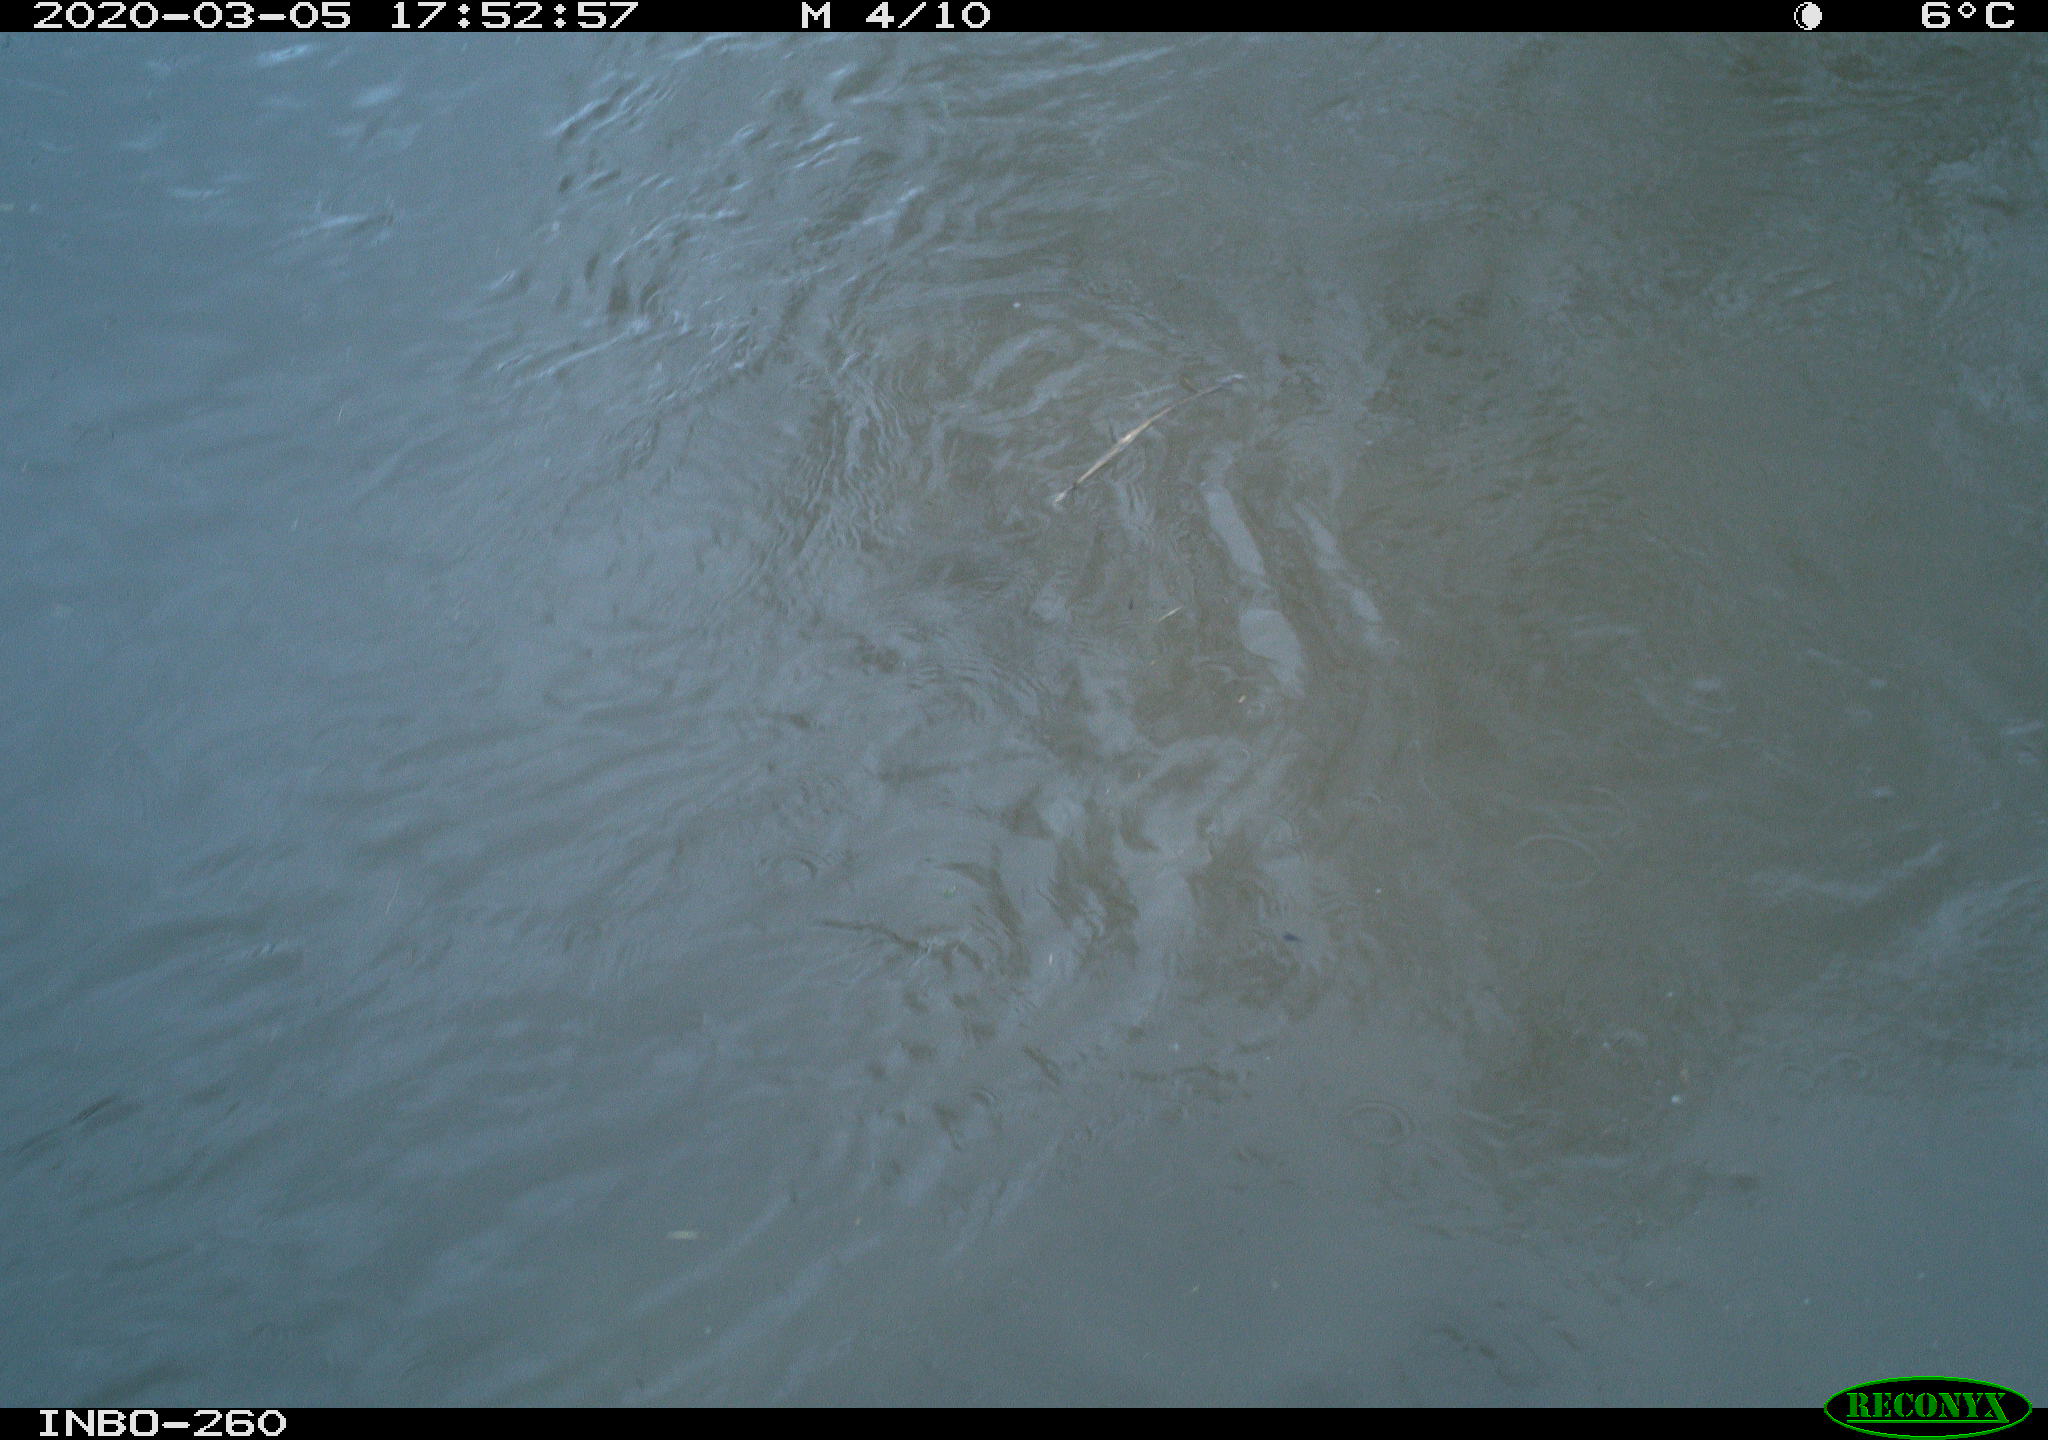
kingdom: Animalia
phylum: Chordata
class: Aves
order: Anseriformes
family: Anatidae
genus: Anas
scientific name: Anas platyrhynchos
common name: Mallard
